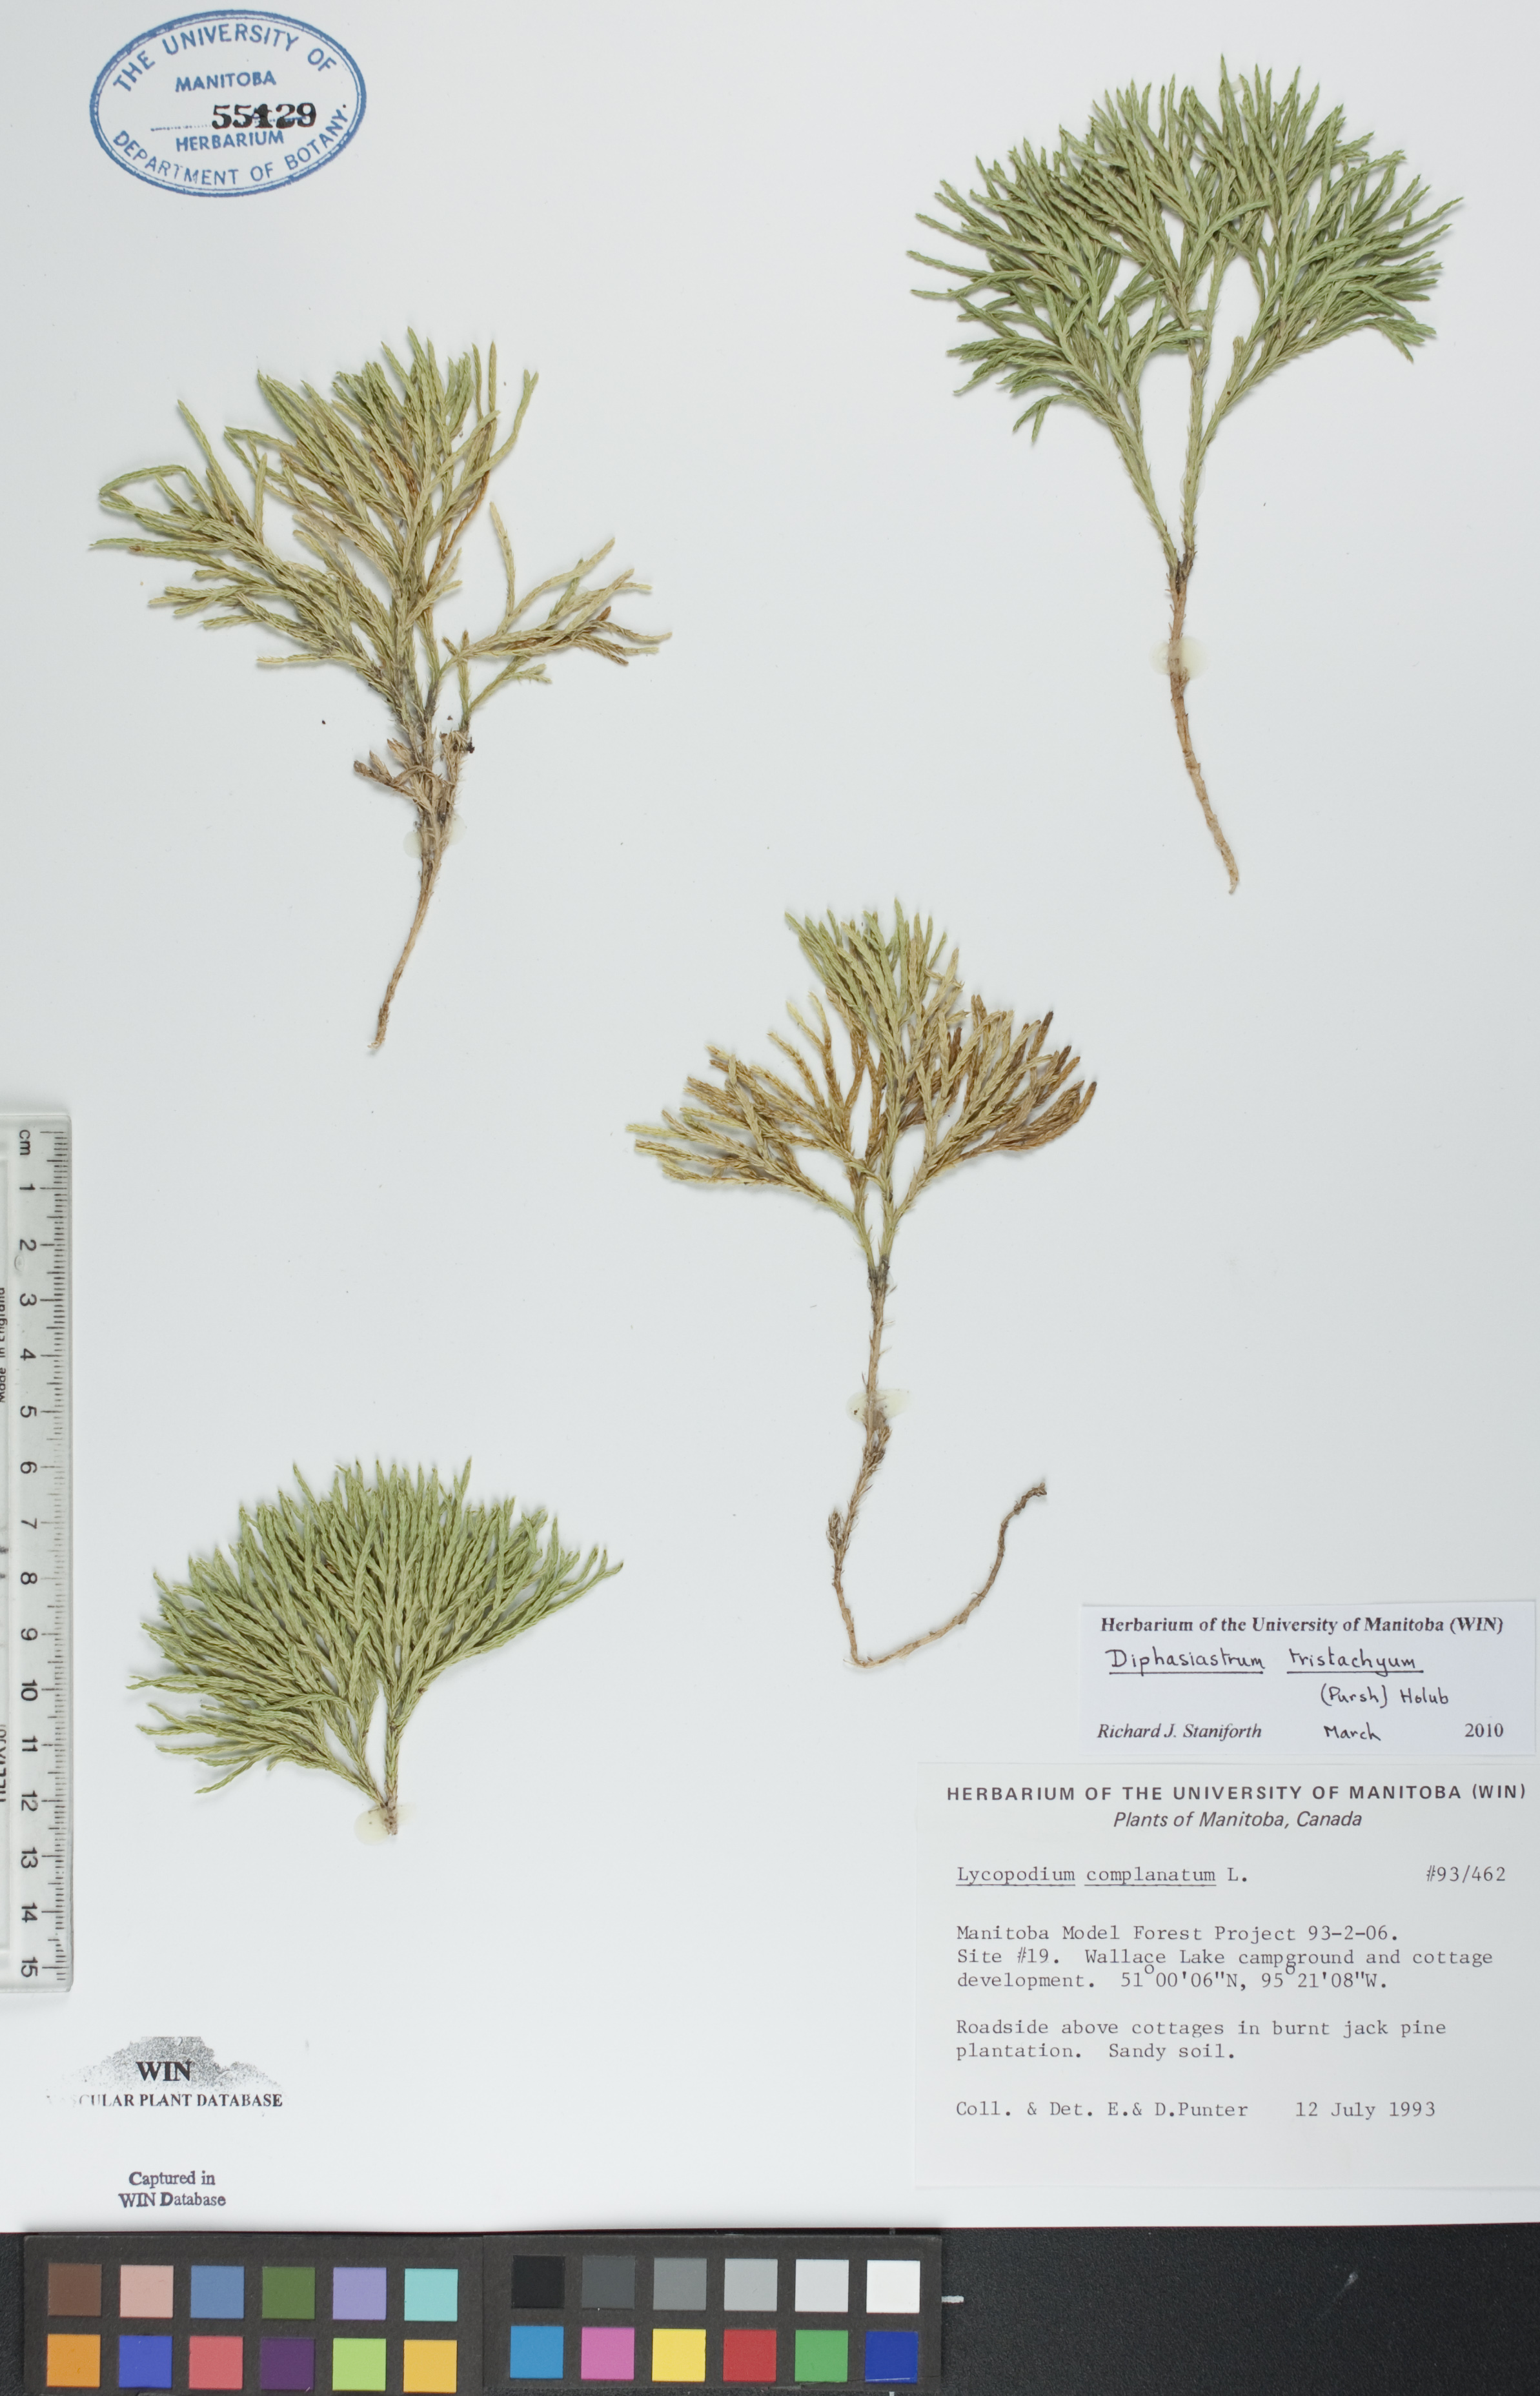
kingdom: Plantae
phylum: Tracheophyta
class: Lycopodiopsida
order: Lycopodiales
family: Lycopodiaceae
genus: Diphasiastrum
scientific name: Diphasiastrum tristachyum
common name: Blue ground-cedar
